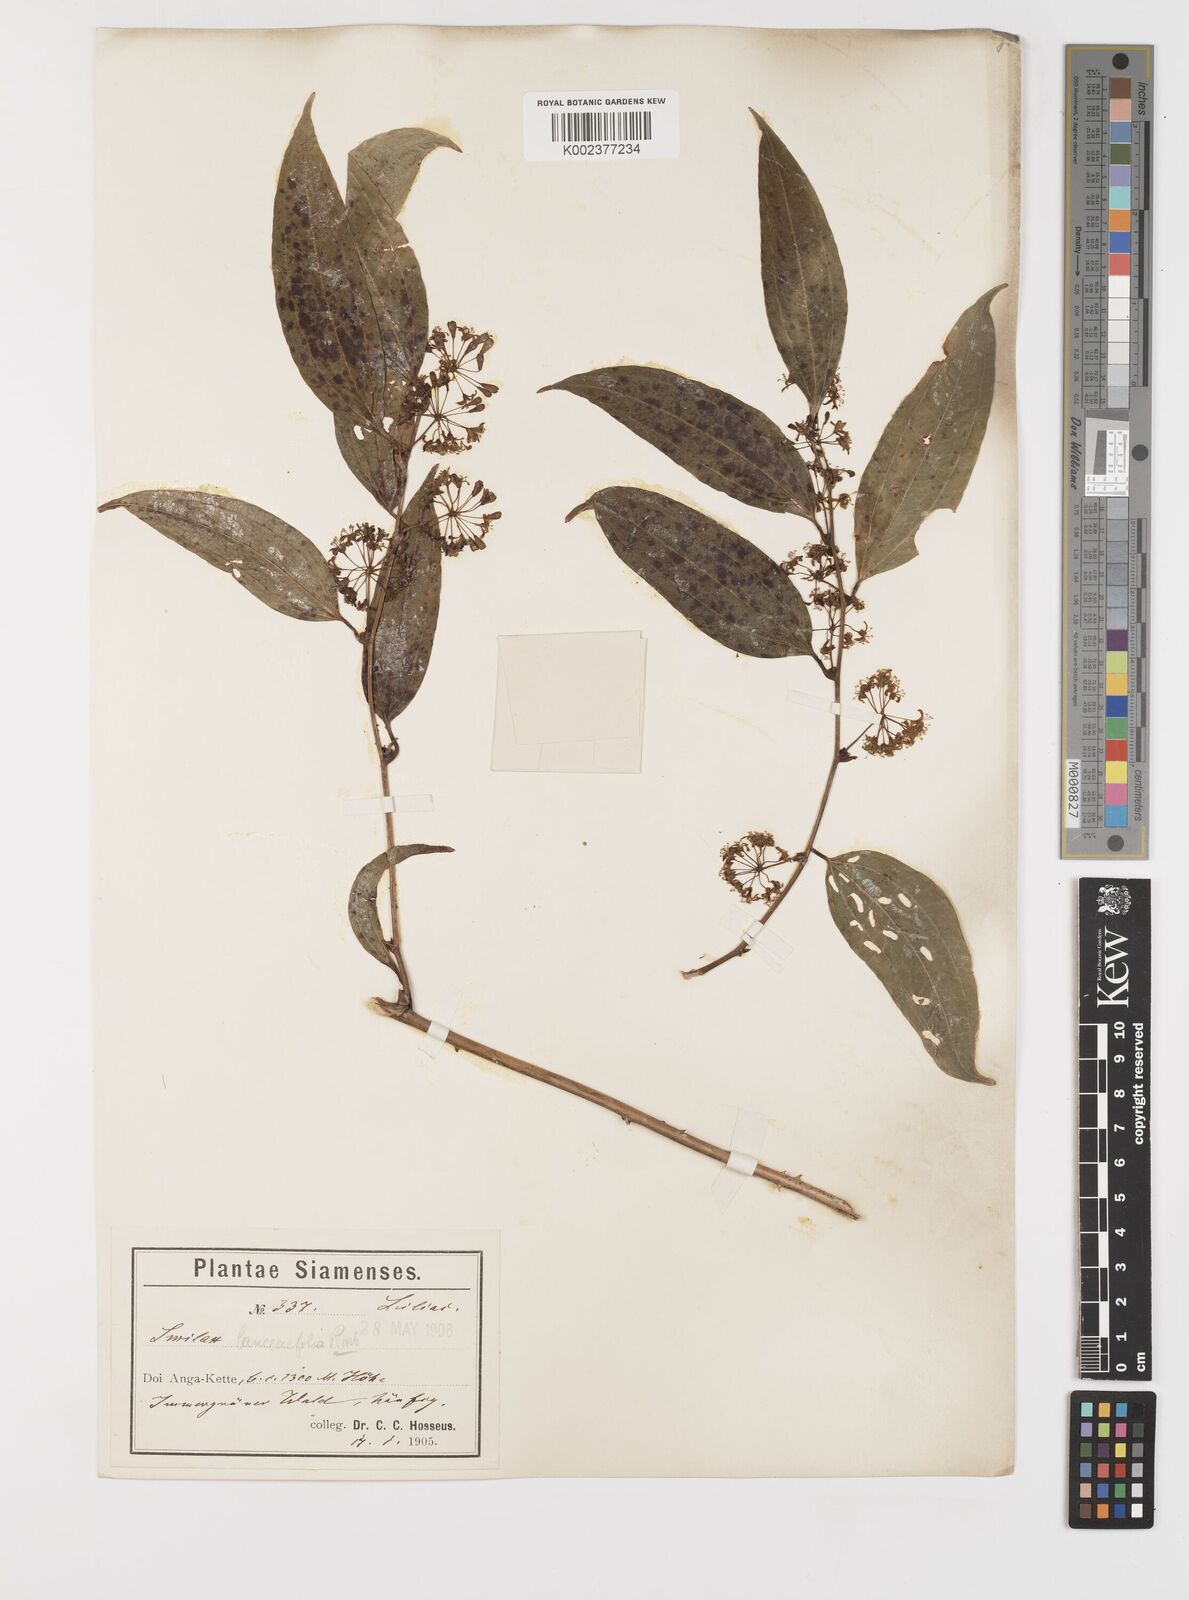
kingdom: Plantae
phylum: Tracheophyta
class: Liliopsida
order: Liliales
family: Smilacaceae
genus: Smilax
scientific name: Smilax lanceifolia
